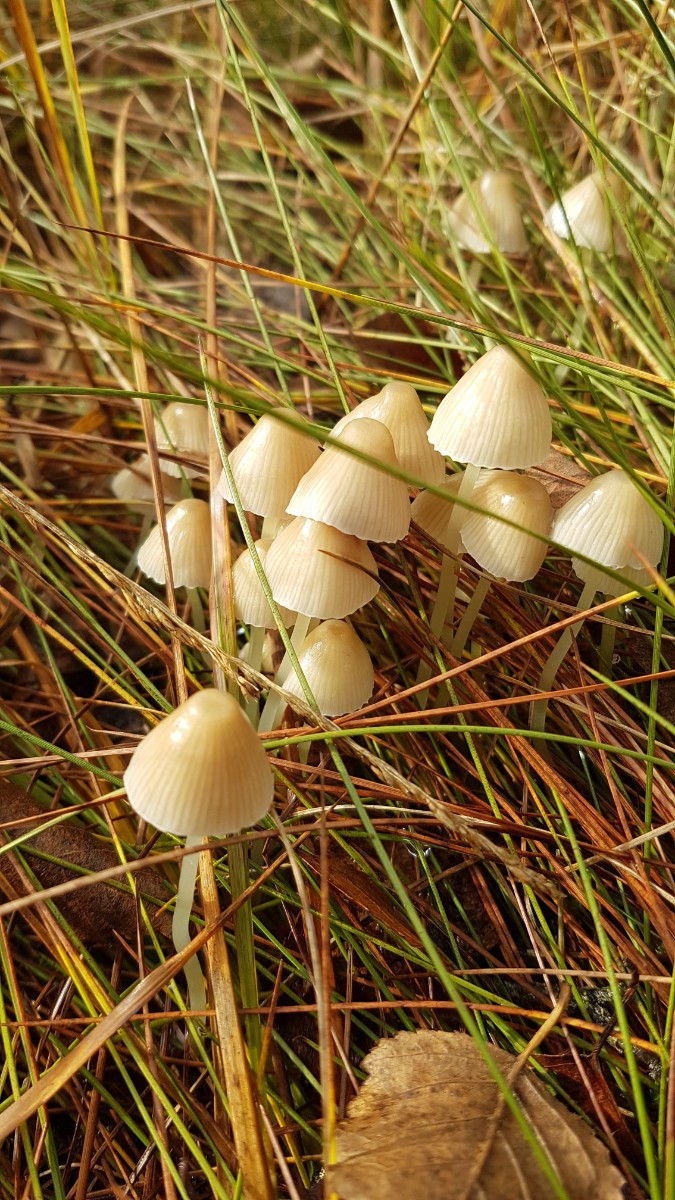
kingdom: Fungi
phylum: Basidiomycota
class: Agaricomycetes
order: Agaricales
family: Mycenaceae
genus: Mycena
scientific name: Mycena epipterygia
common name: gulstokket huesvamp
